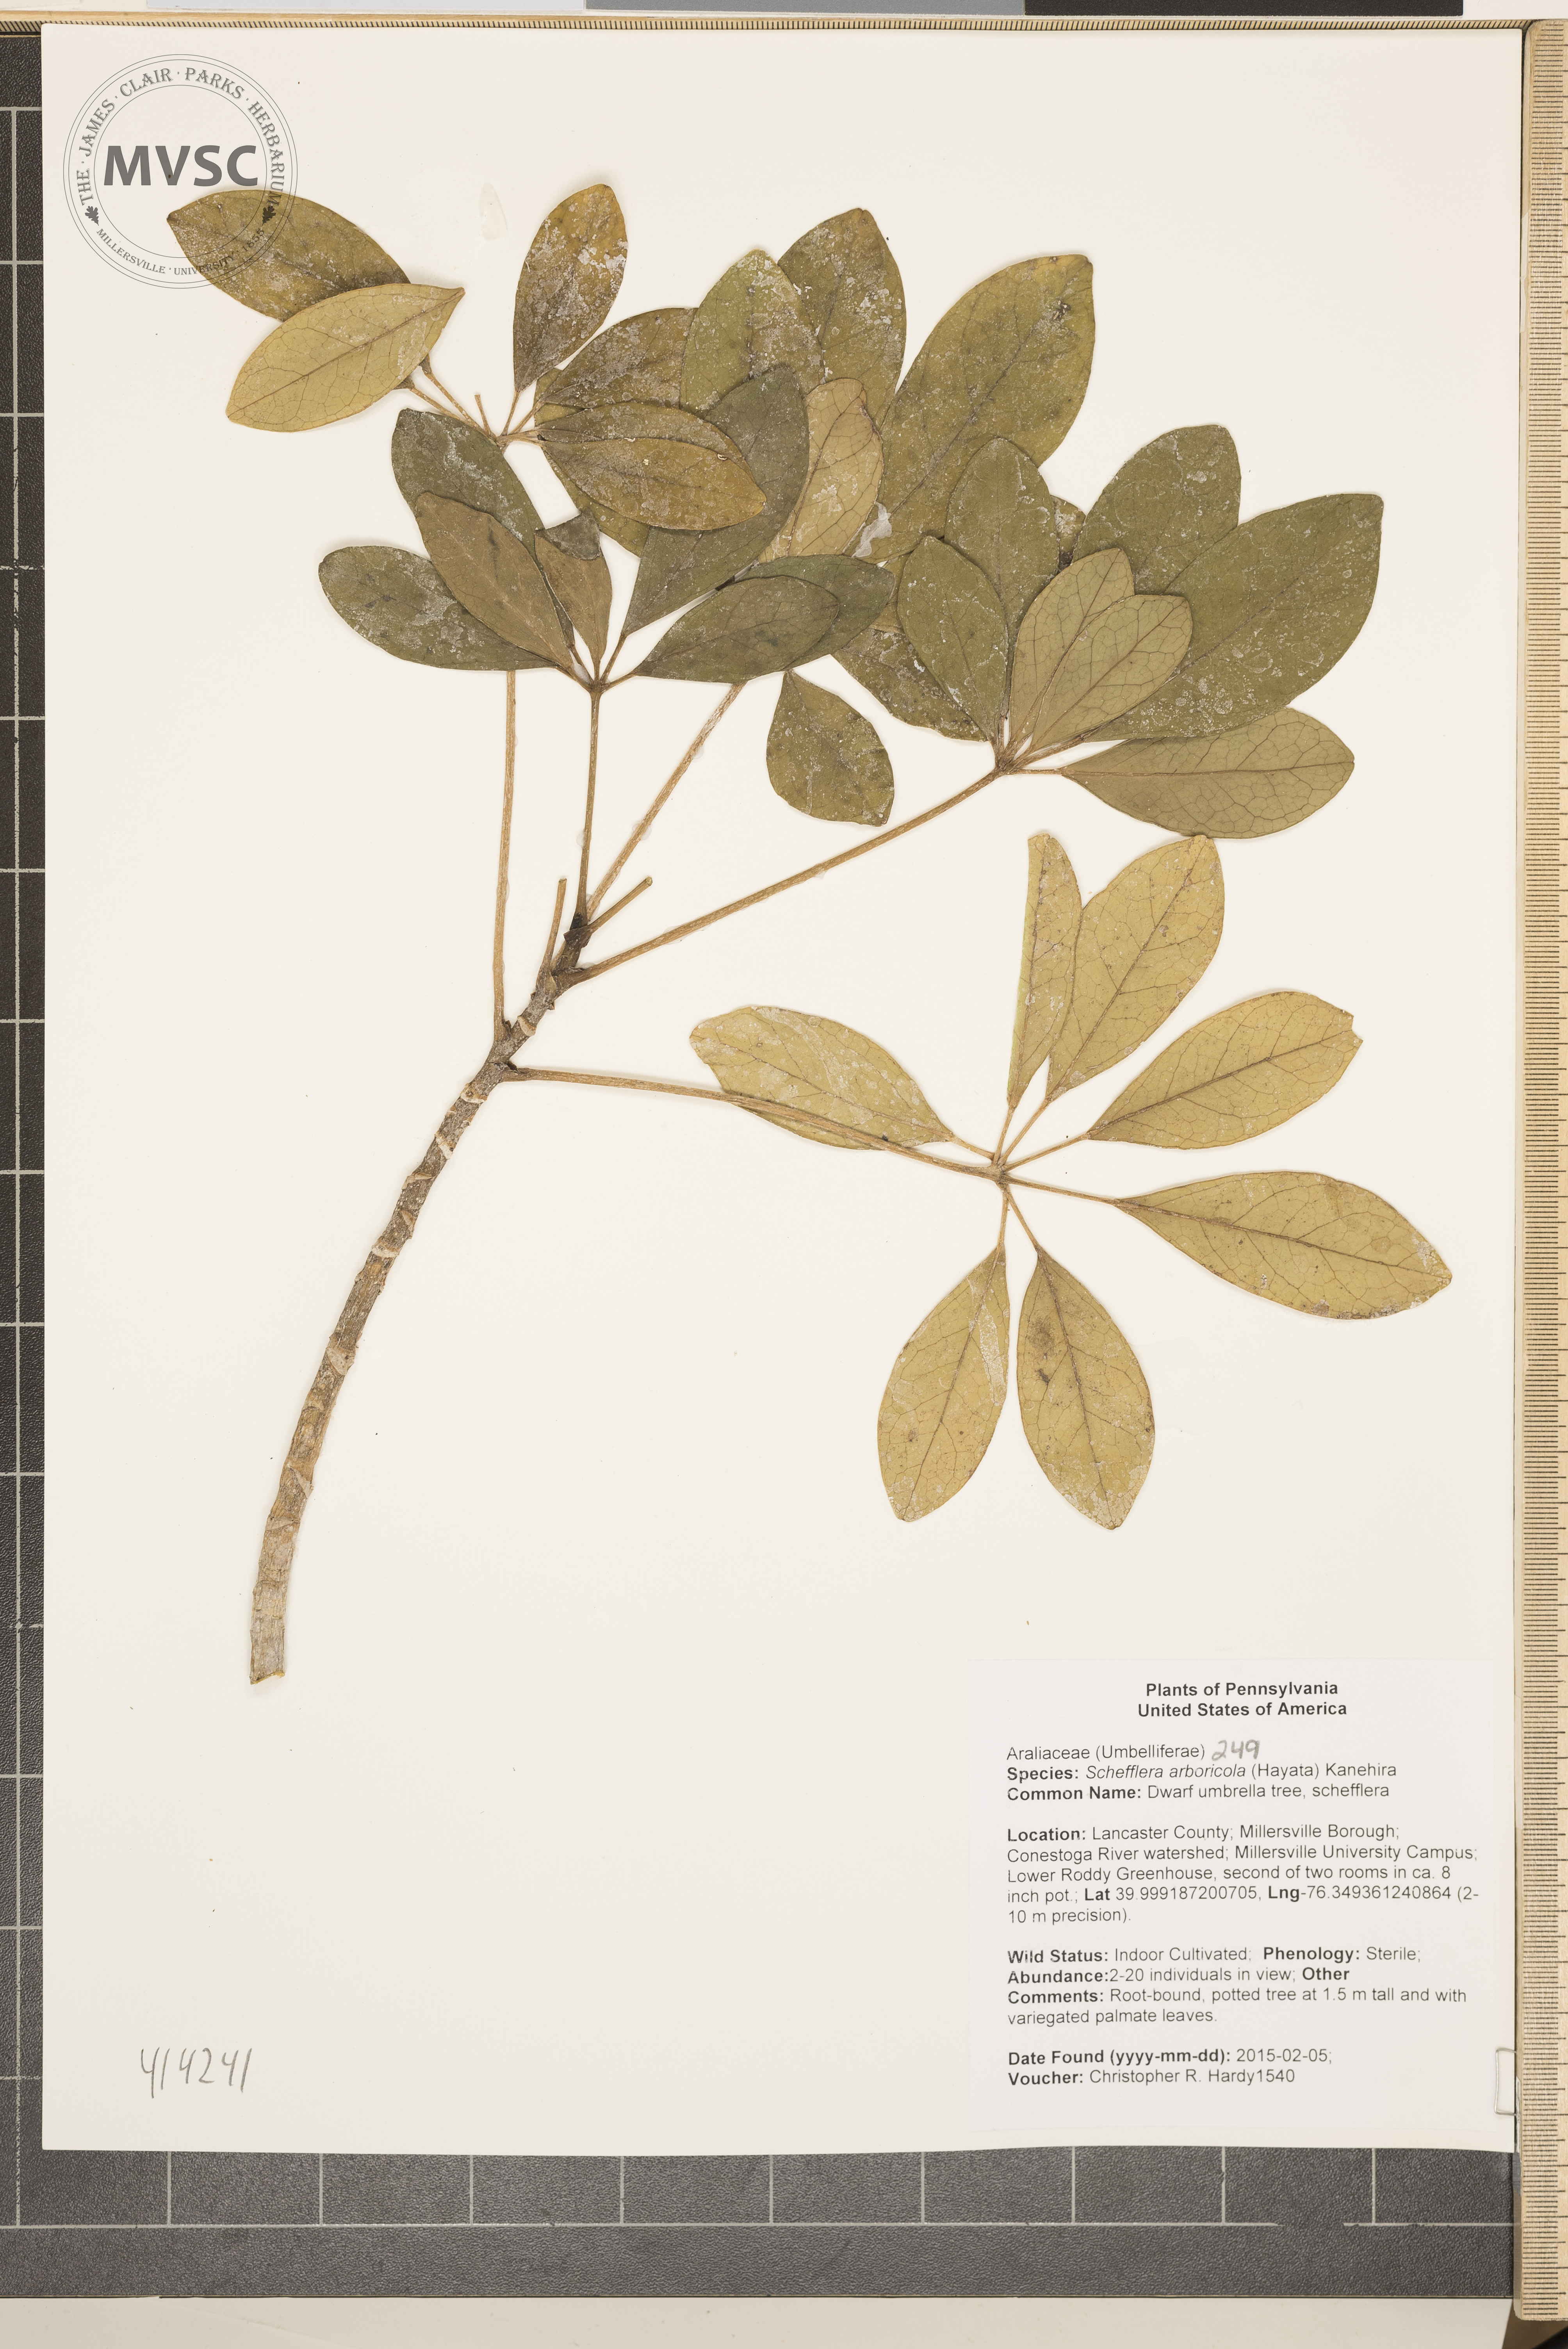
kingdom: Plantae
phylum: Tracheophyta
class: Magnoliopsida
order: Apiales
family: Araliaceae
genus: Heptapleurum
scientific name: Heptapleurum arboricola
